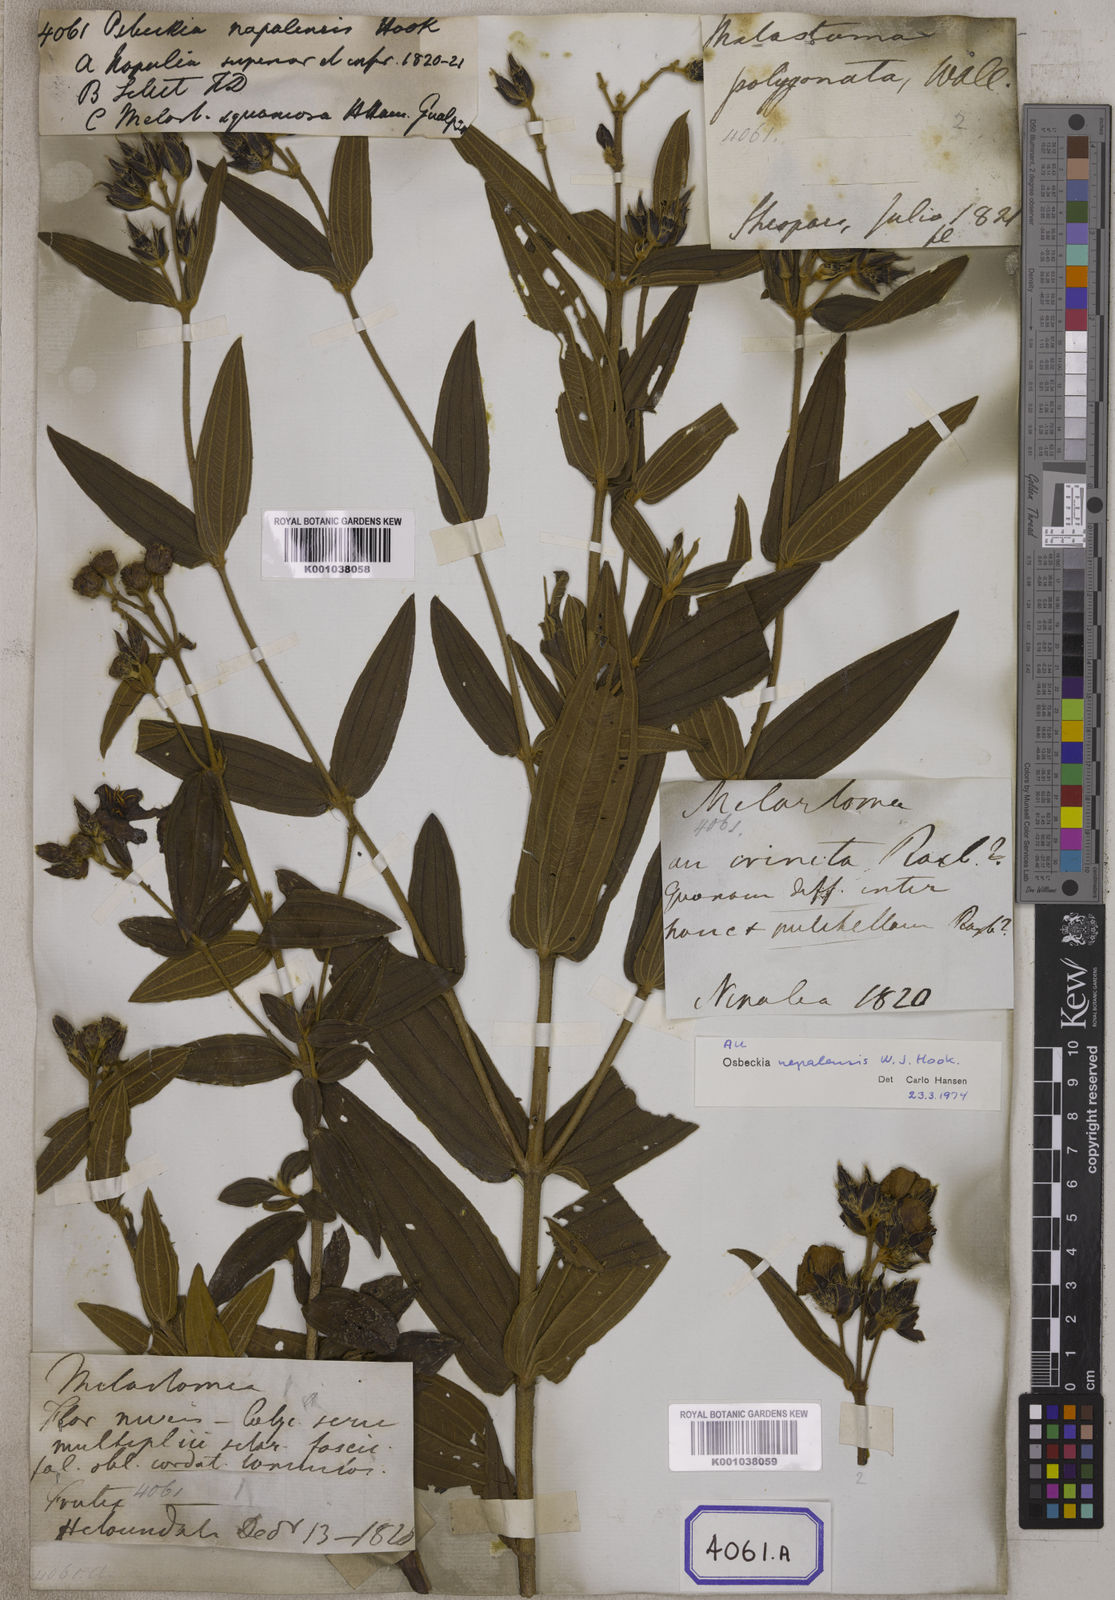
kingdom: Plantae
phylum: Tracheophyta
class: Magnoliopsida
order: Myrtales
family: Melastomataceae
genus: Osbeckia
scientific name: Osbeckia nepalensis
